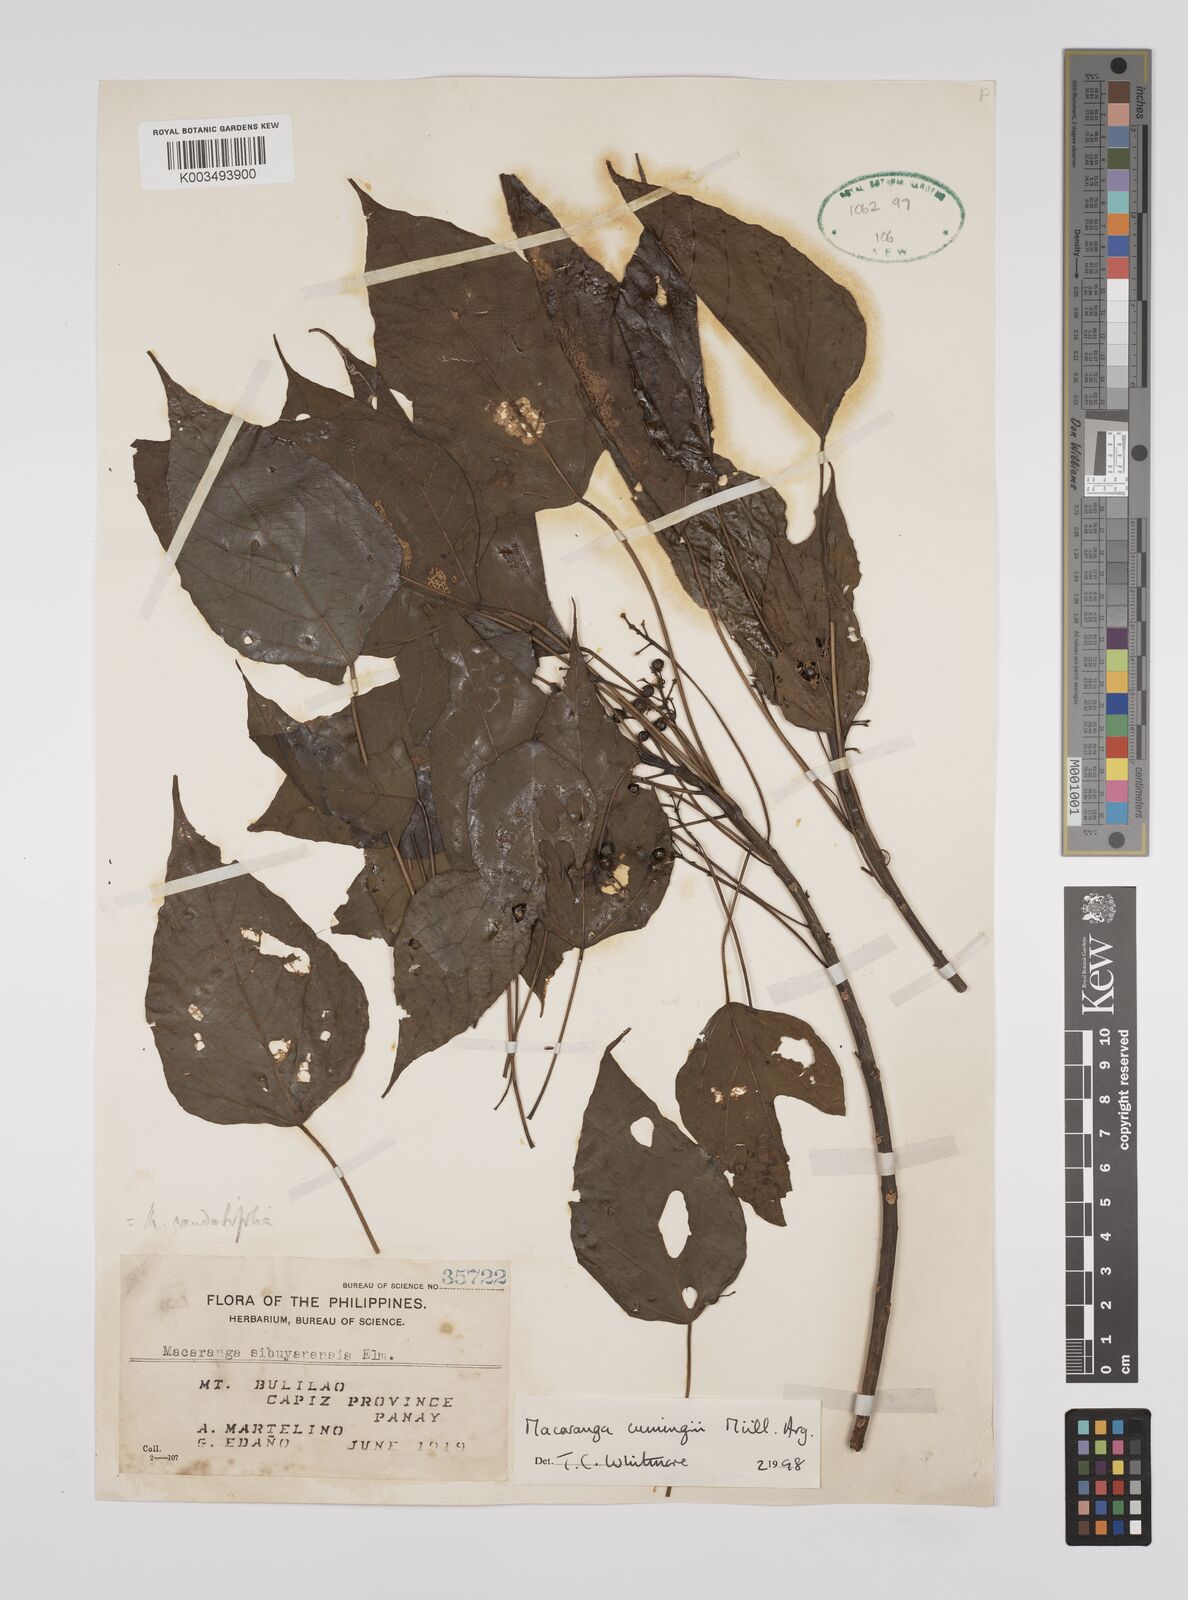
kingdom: Plantae
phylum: Tracheophyta
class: Magnoliopsida
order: Malpighiales
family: Euphorbiaceae
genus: Macaranga
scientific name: Macaranga cumingii
